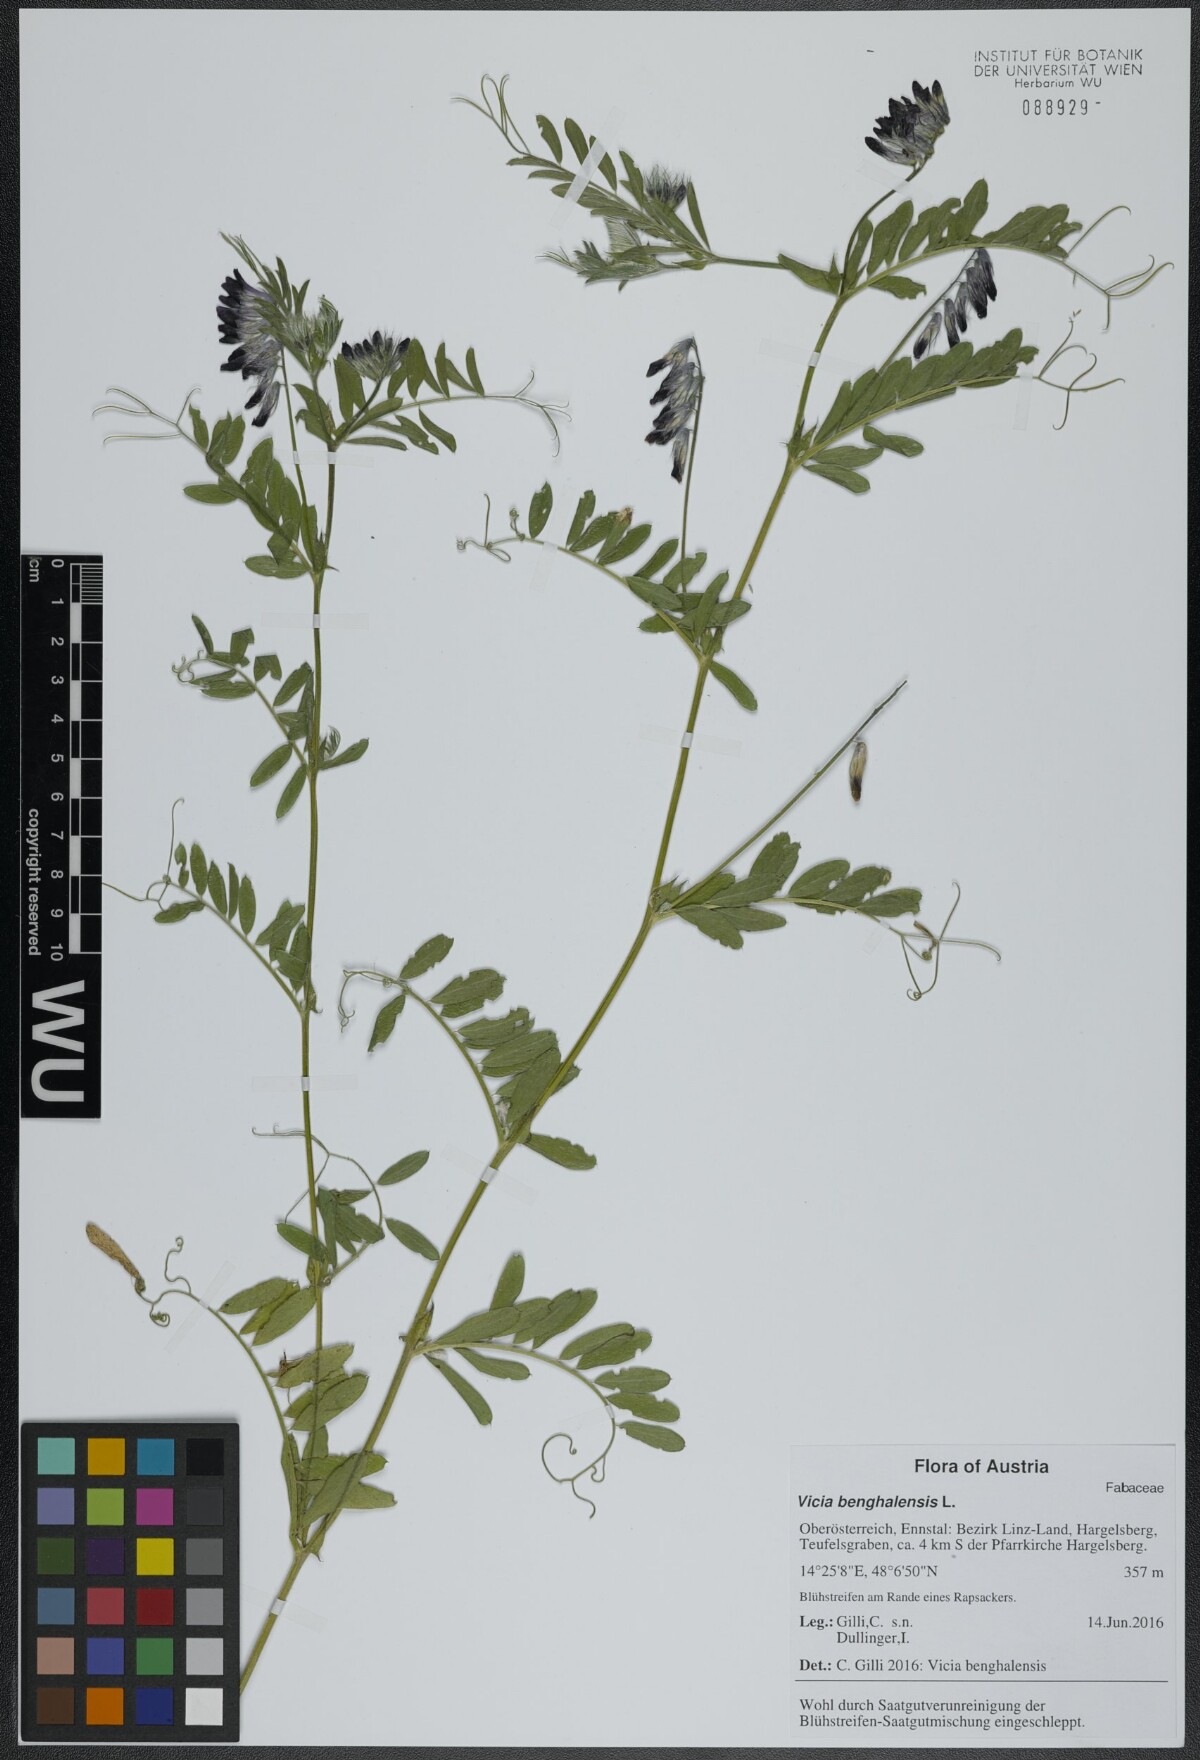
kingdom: Plantae
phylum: Tracheophyta
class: Magnoliopsida
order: Fabales
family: Fabaceae
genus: Vicia
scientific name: Vicia benghalensis
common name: Purple vetch
